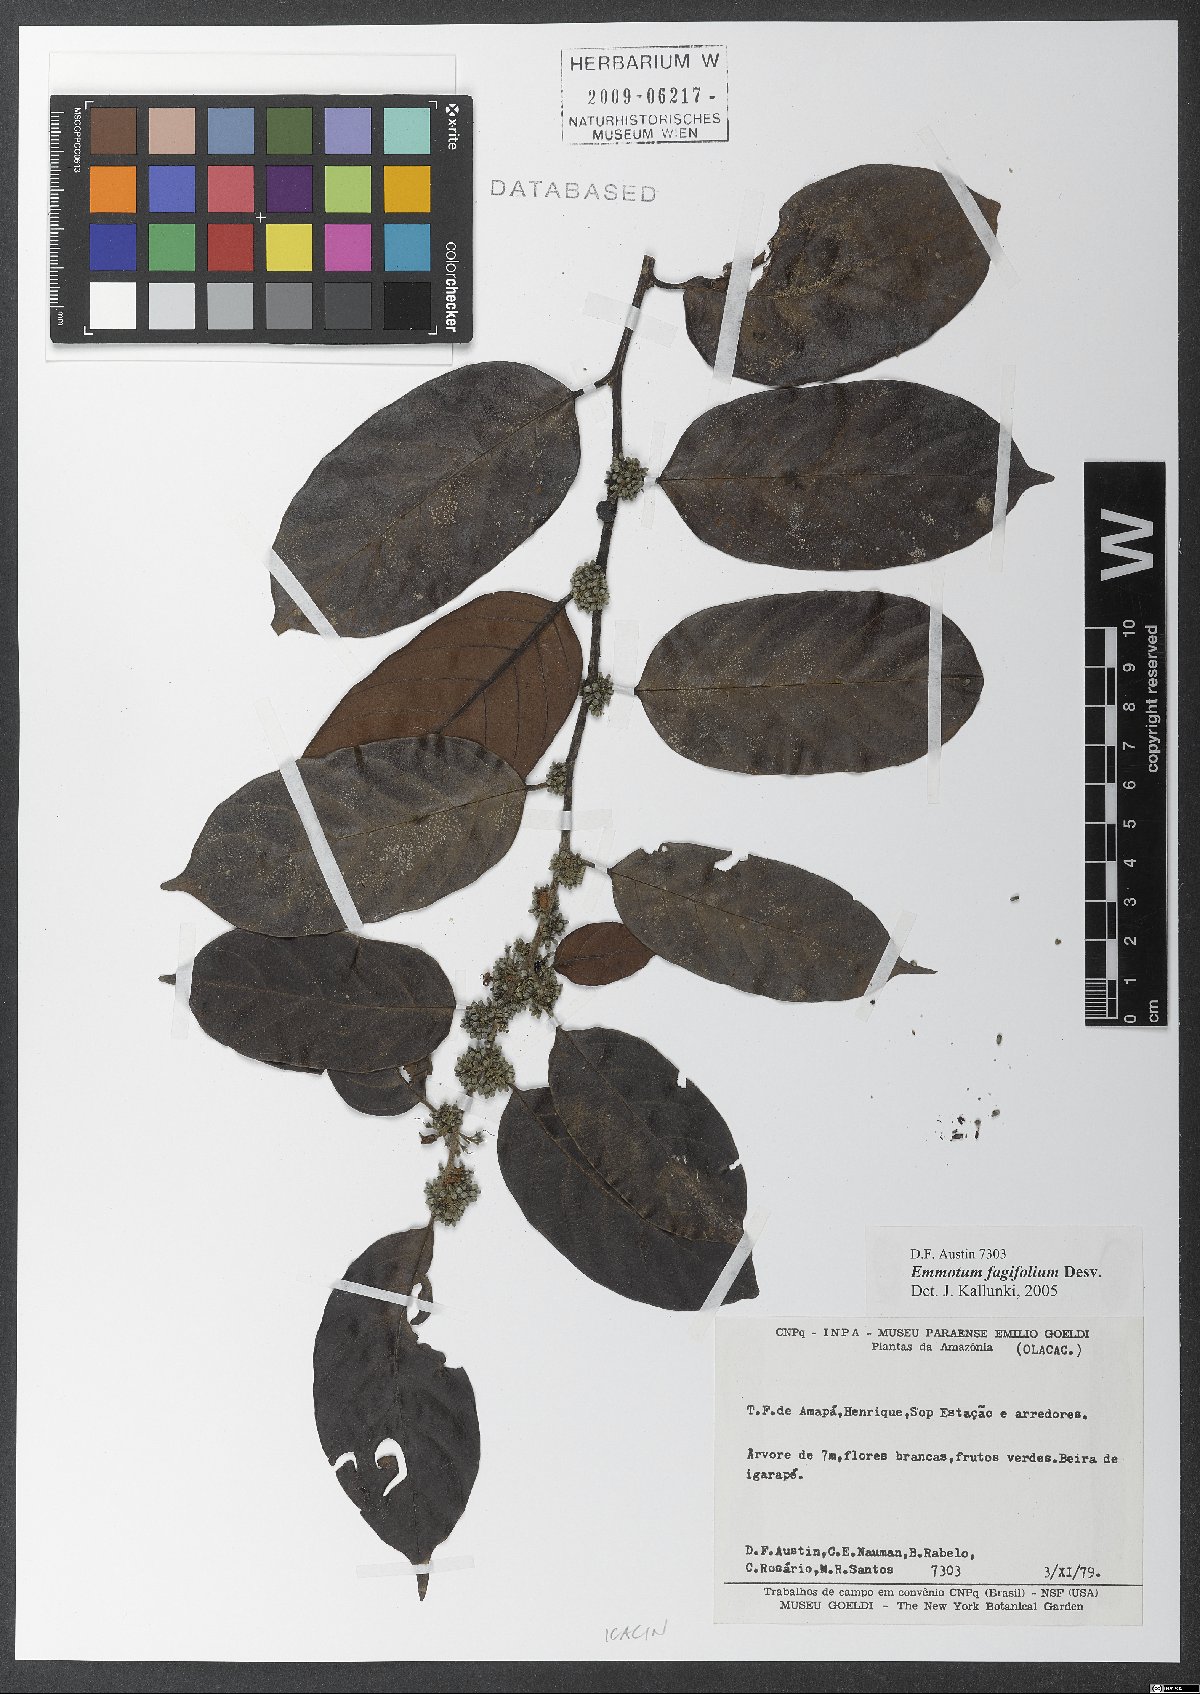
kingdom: Plantae
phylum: Tracheophyta
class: Magnoliopsida
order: Metteniusales
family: Metteniusaceae
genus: Emmotum
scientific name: Emmotum fagifolium
